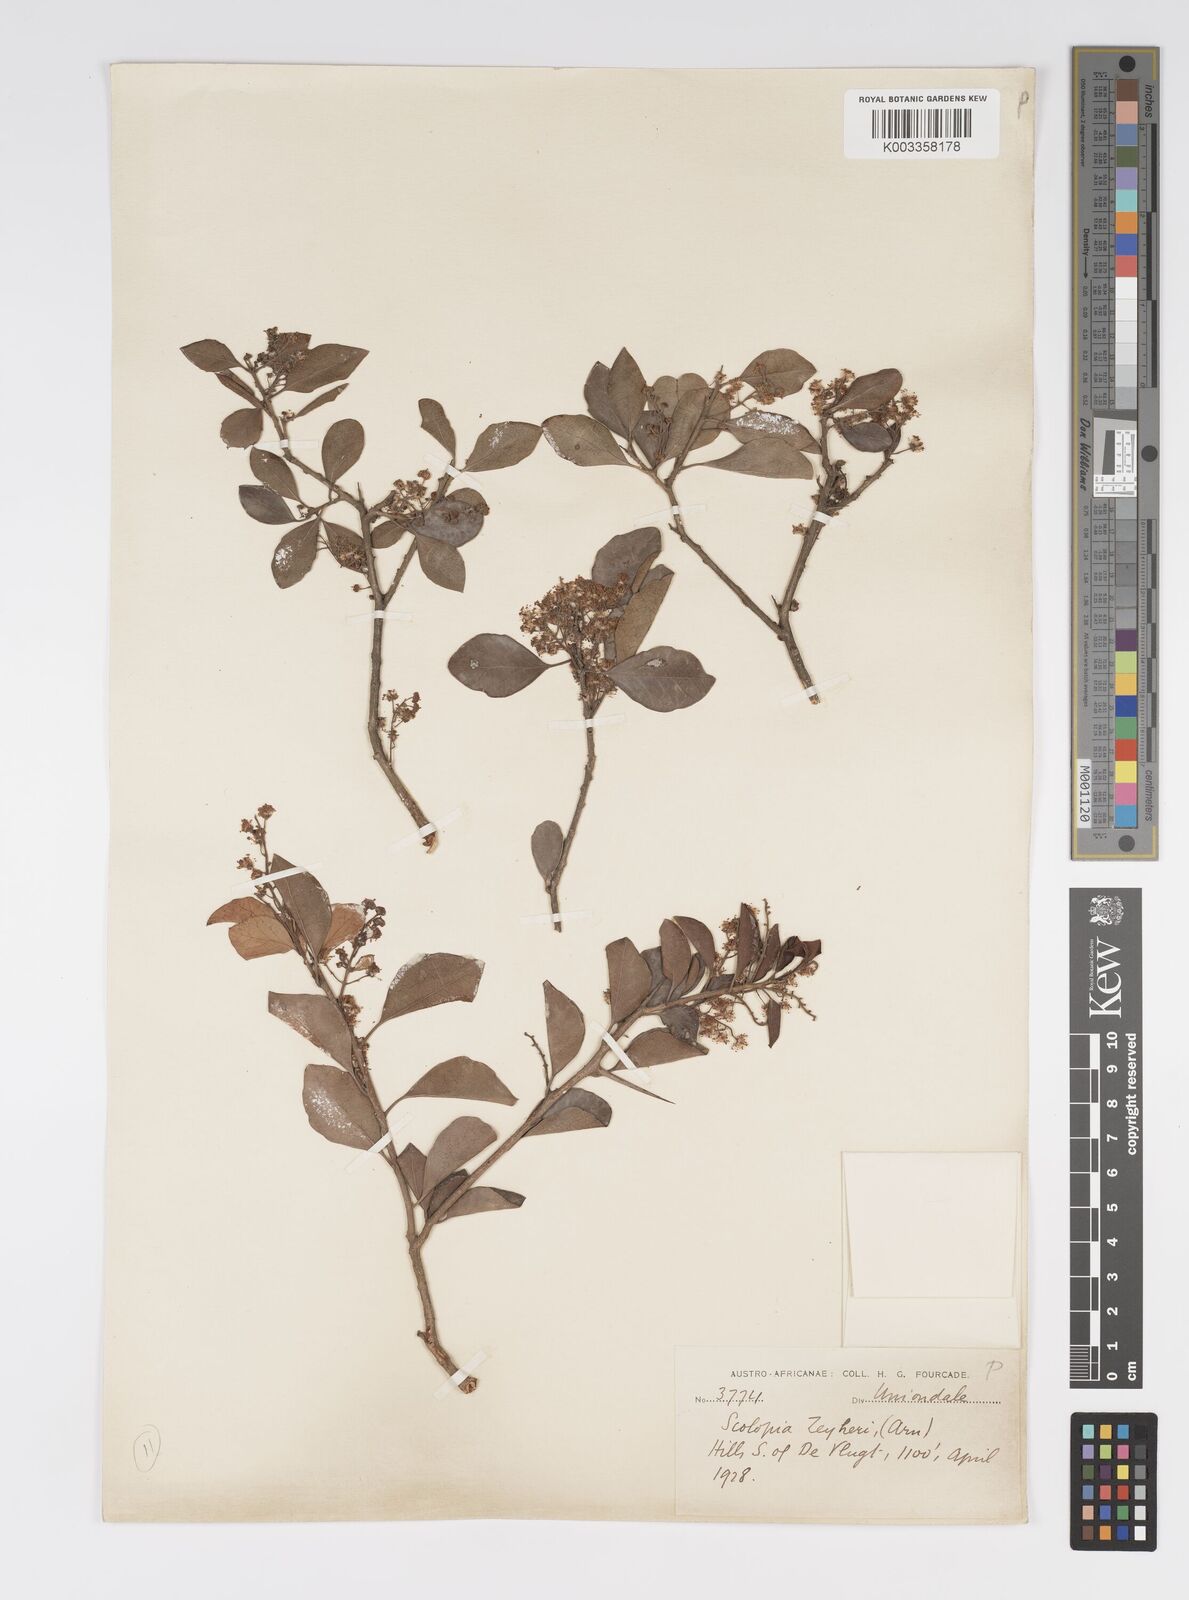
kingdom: Plantae
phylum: Tracheophyta
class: Magnoliopsida
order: Malpighiales
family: Salicaceae
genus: Scolopia
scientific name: Scolopia zeyheri
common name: Thorn pear
